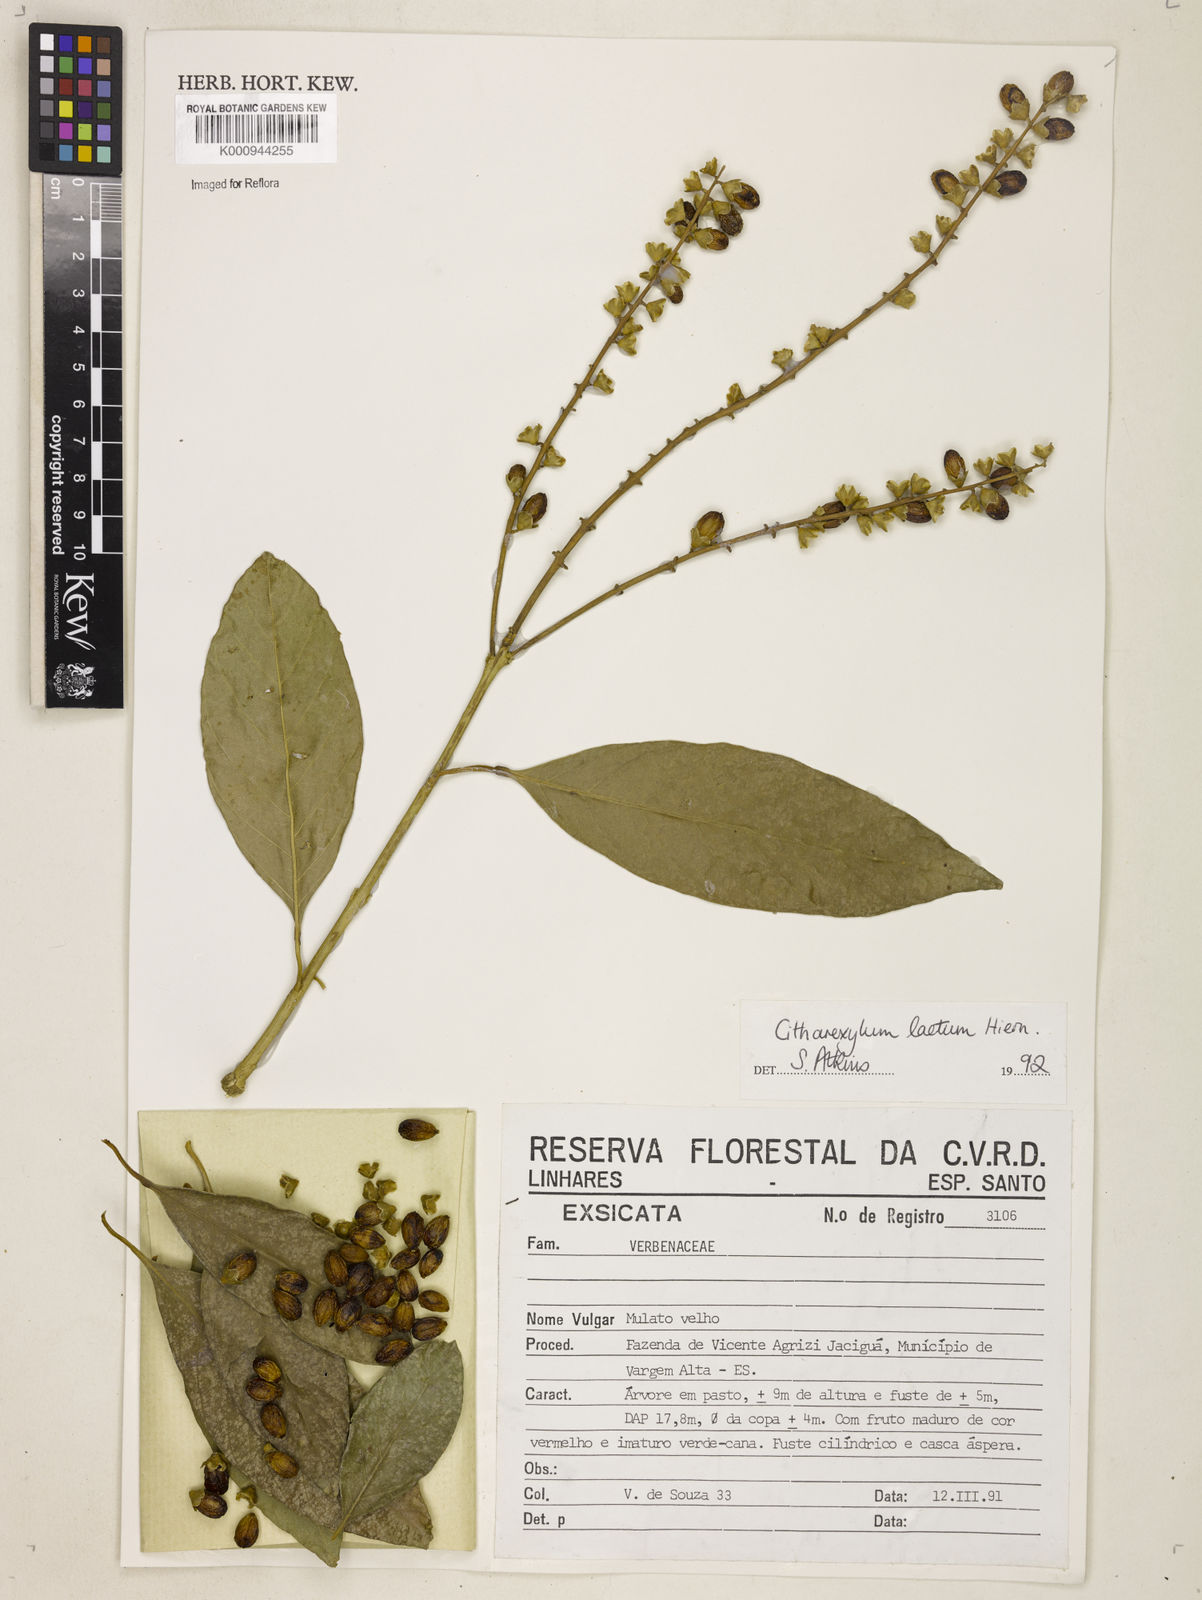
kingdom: Plantae
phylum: Tracheophyta
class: Magnoliopsida
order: Lamiales
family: Verbenaceae
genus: Citharexylum
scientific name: Citharexylum myrianthum
